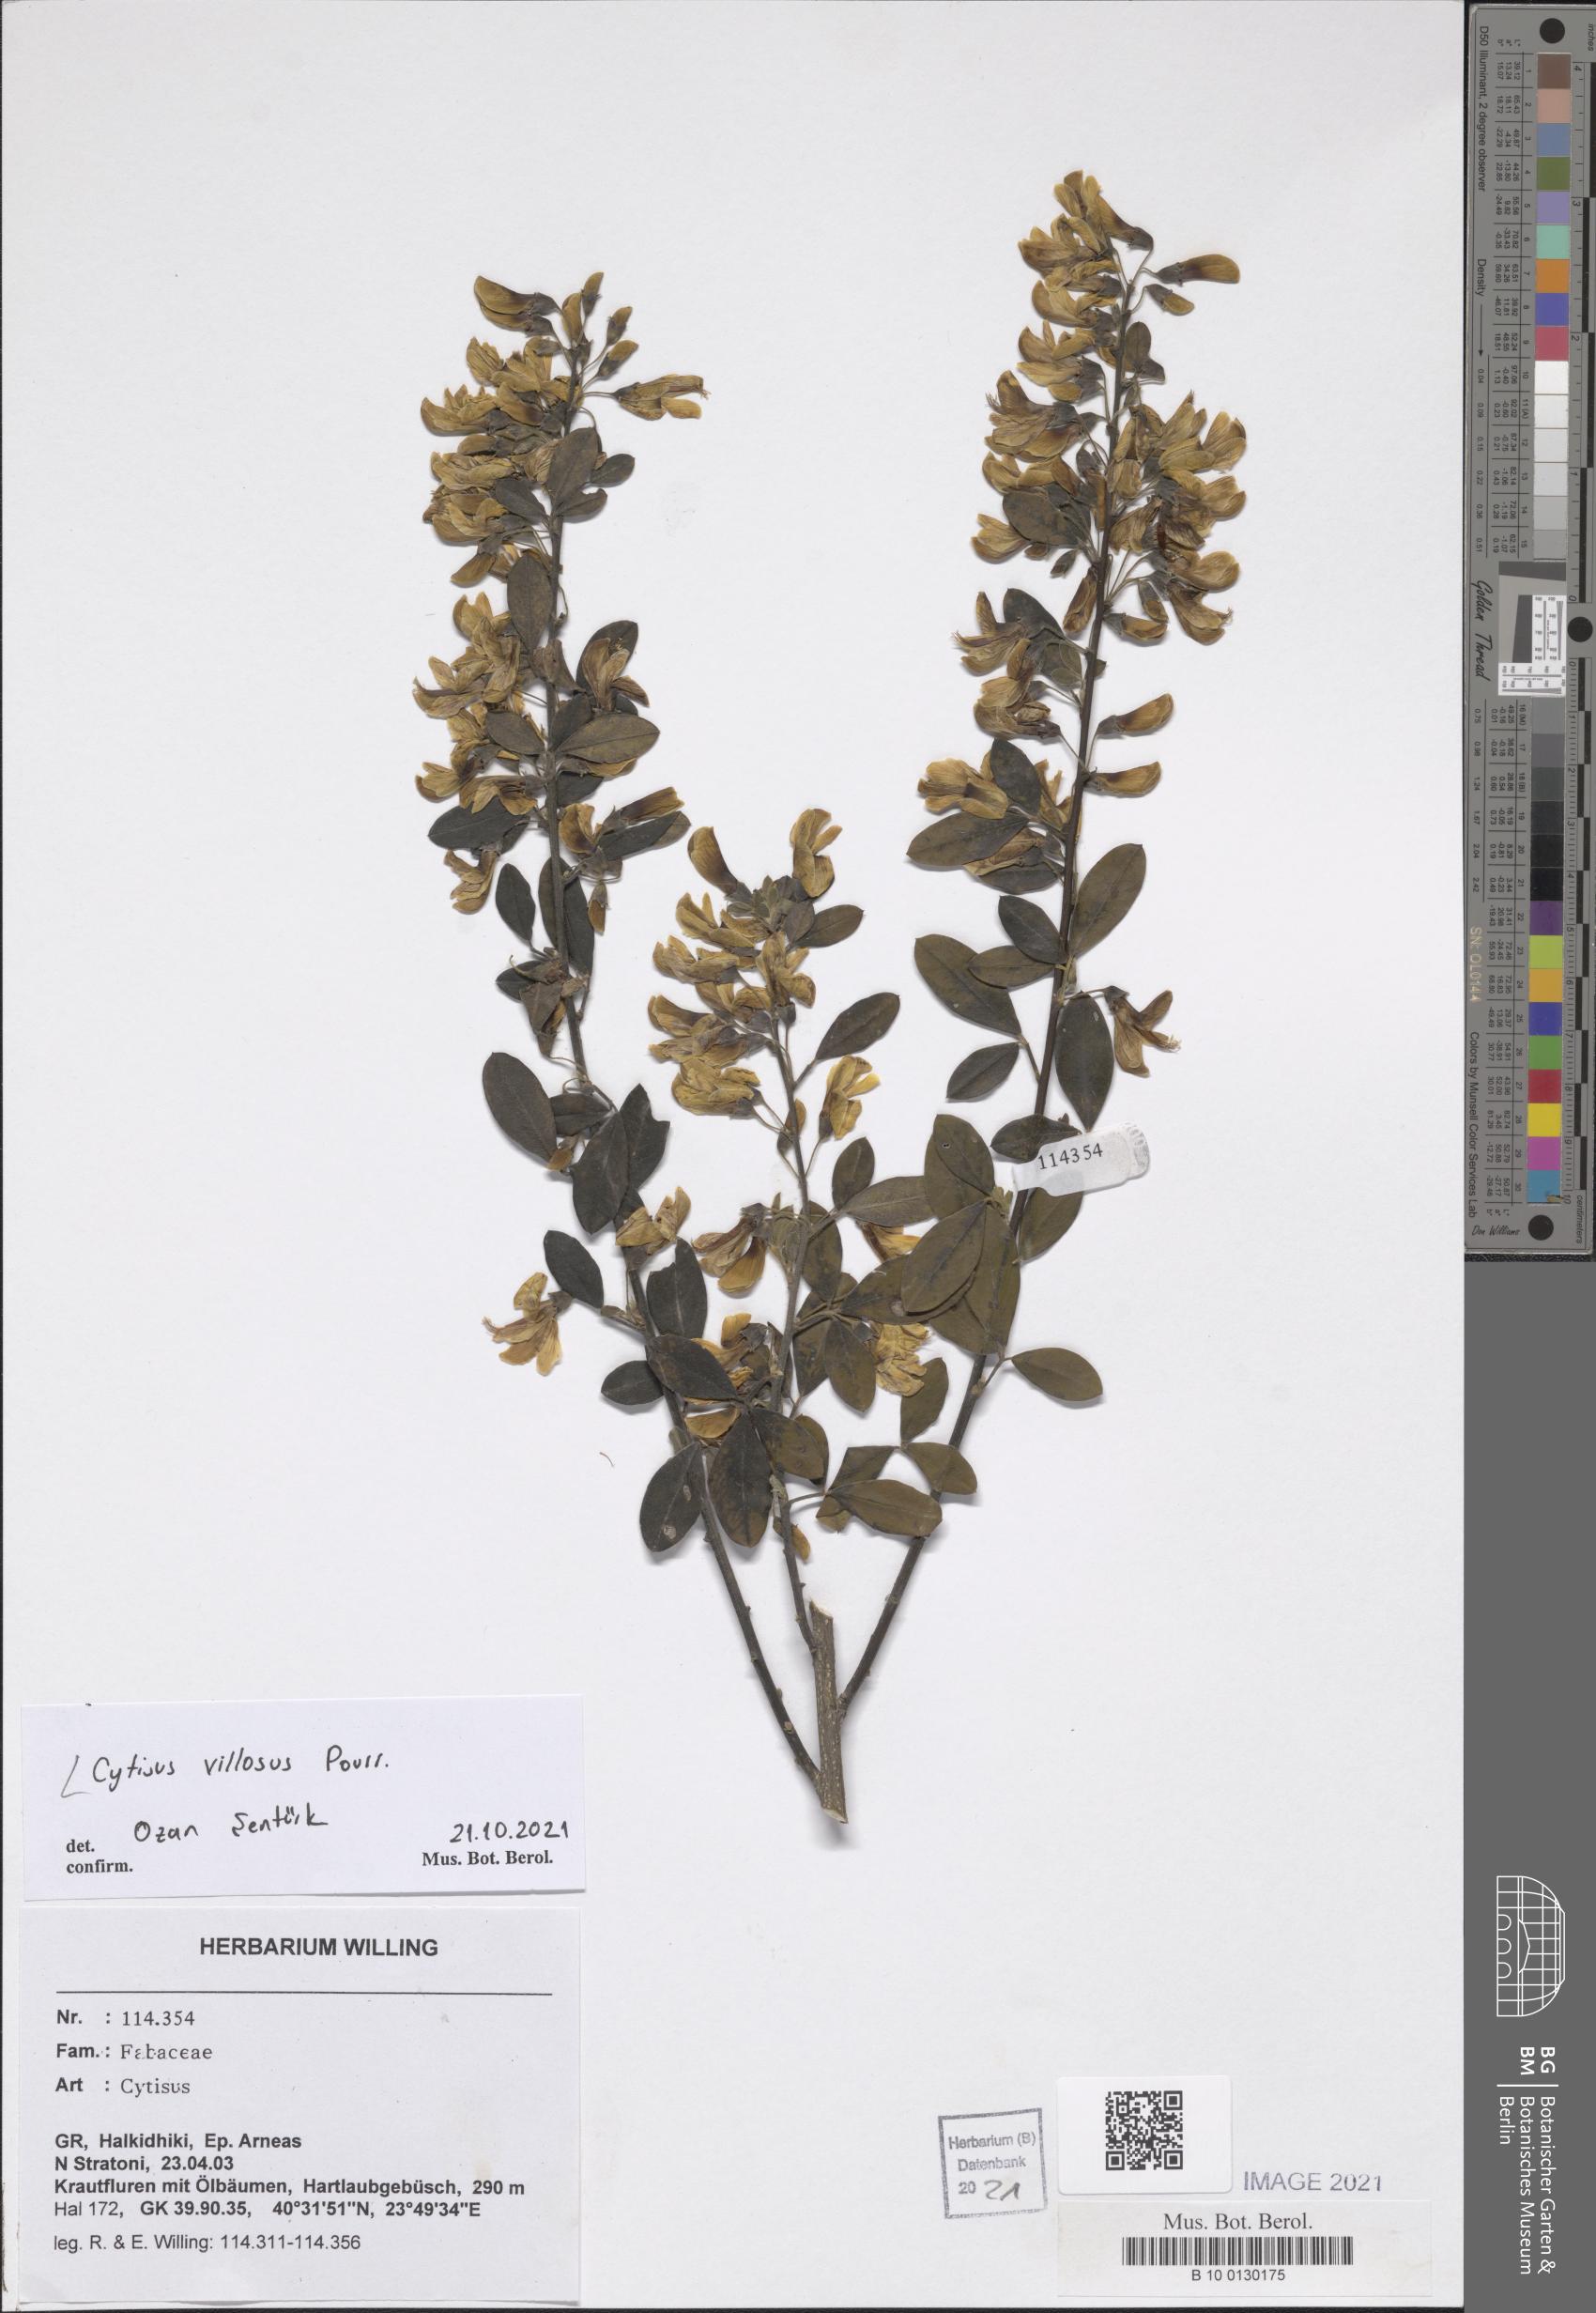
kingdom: Plantae
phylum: Tracheophyta
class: Magnoliopsida
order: Fabales
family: Fabaceae
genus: Cytisus
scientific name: Cytisus villosus
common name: Hairybroom
